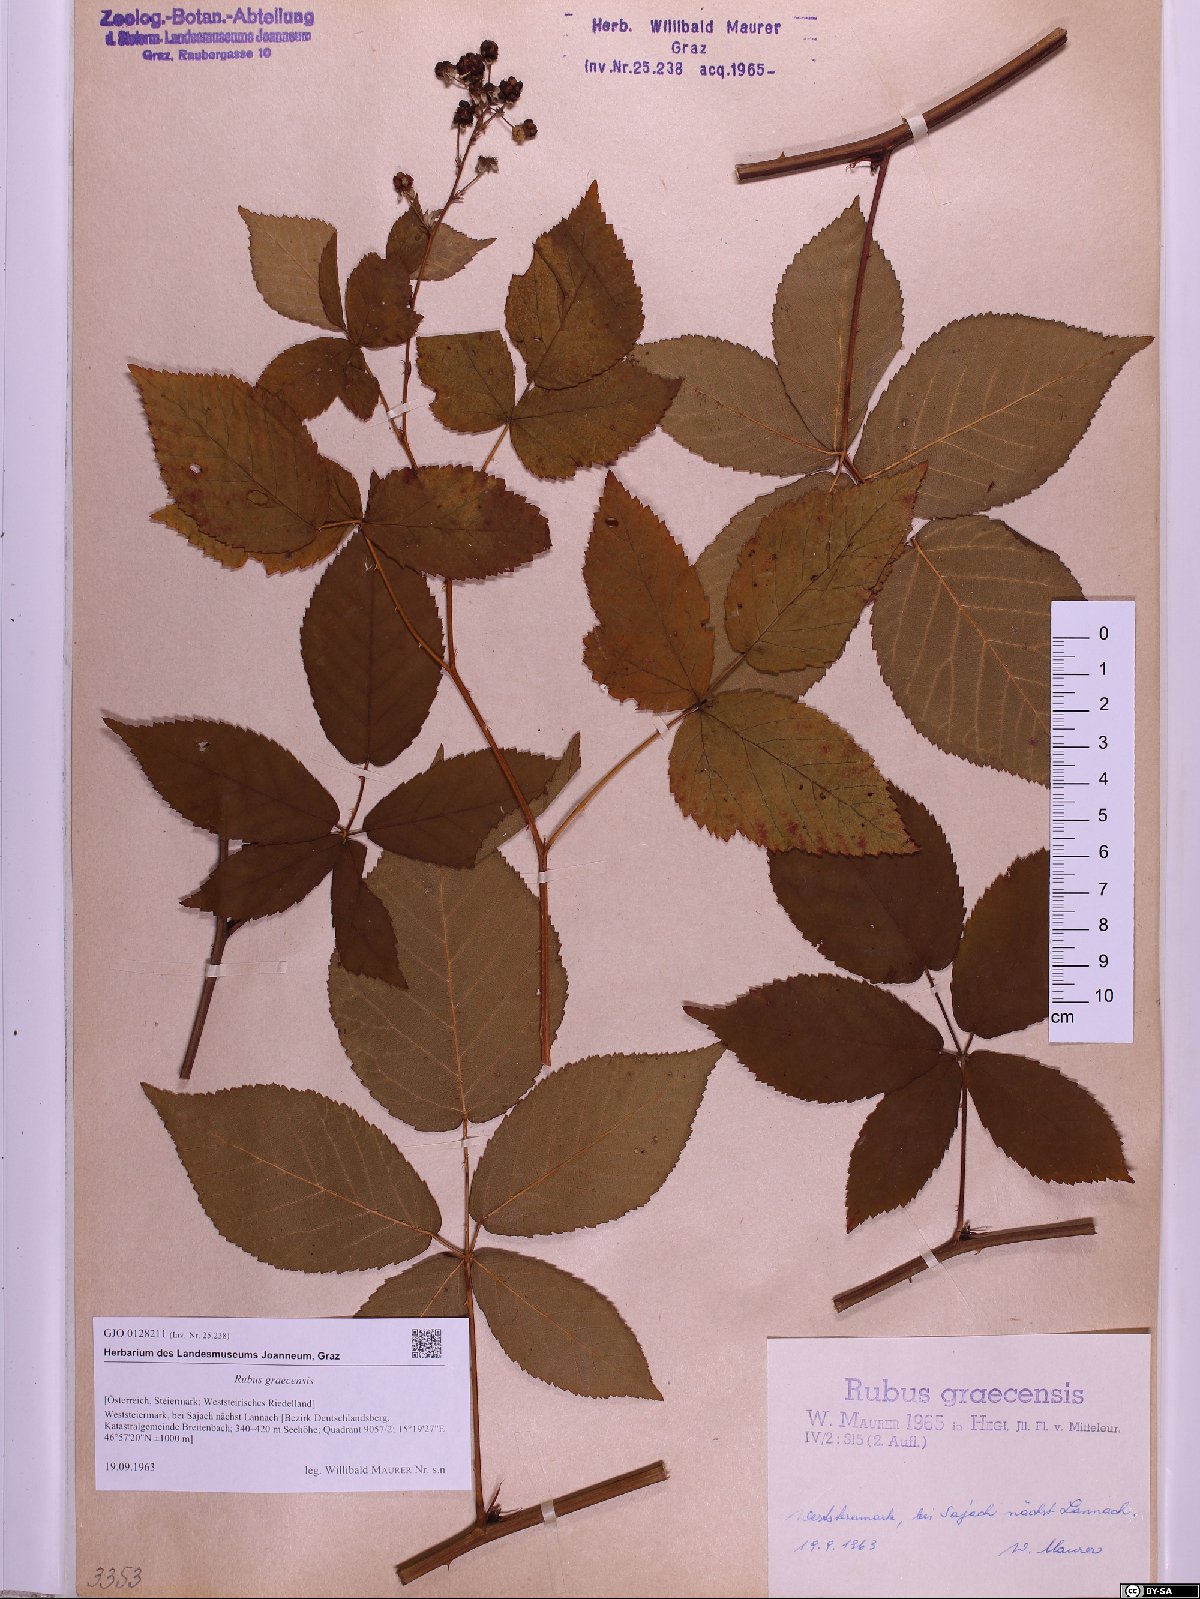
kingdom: Plantae
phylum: Tracheophyta
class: Magnoliopsida
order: Rosales
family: Rosaceae
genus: Rubus
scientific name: Rubus graecensis
